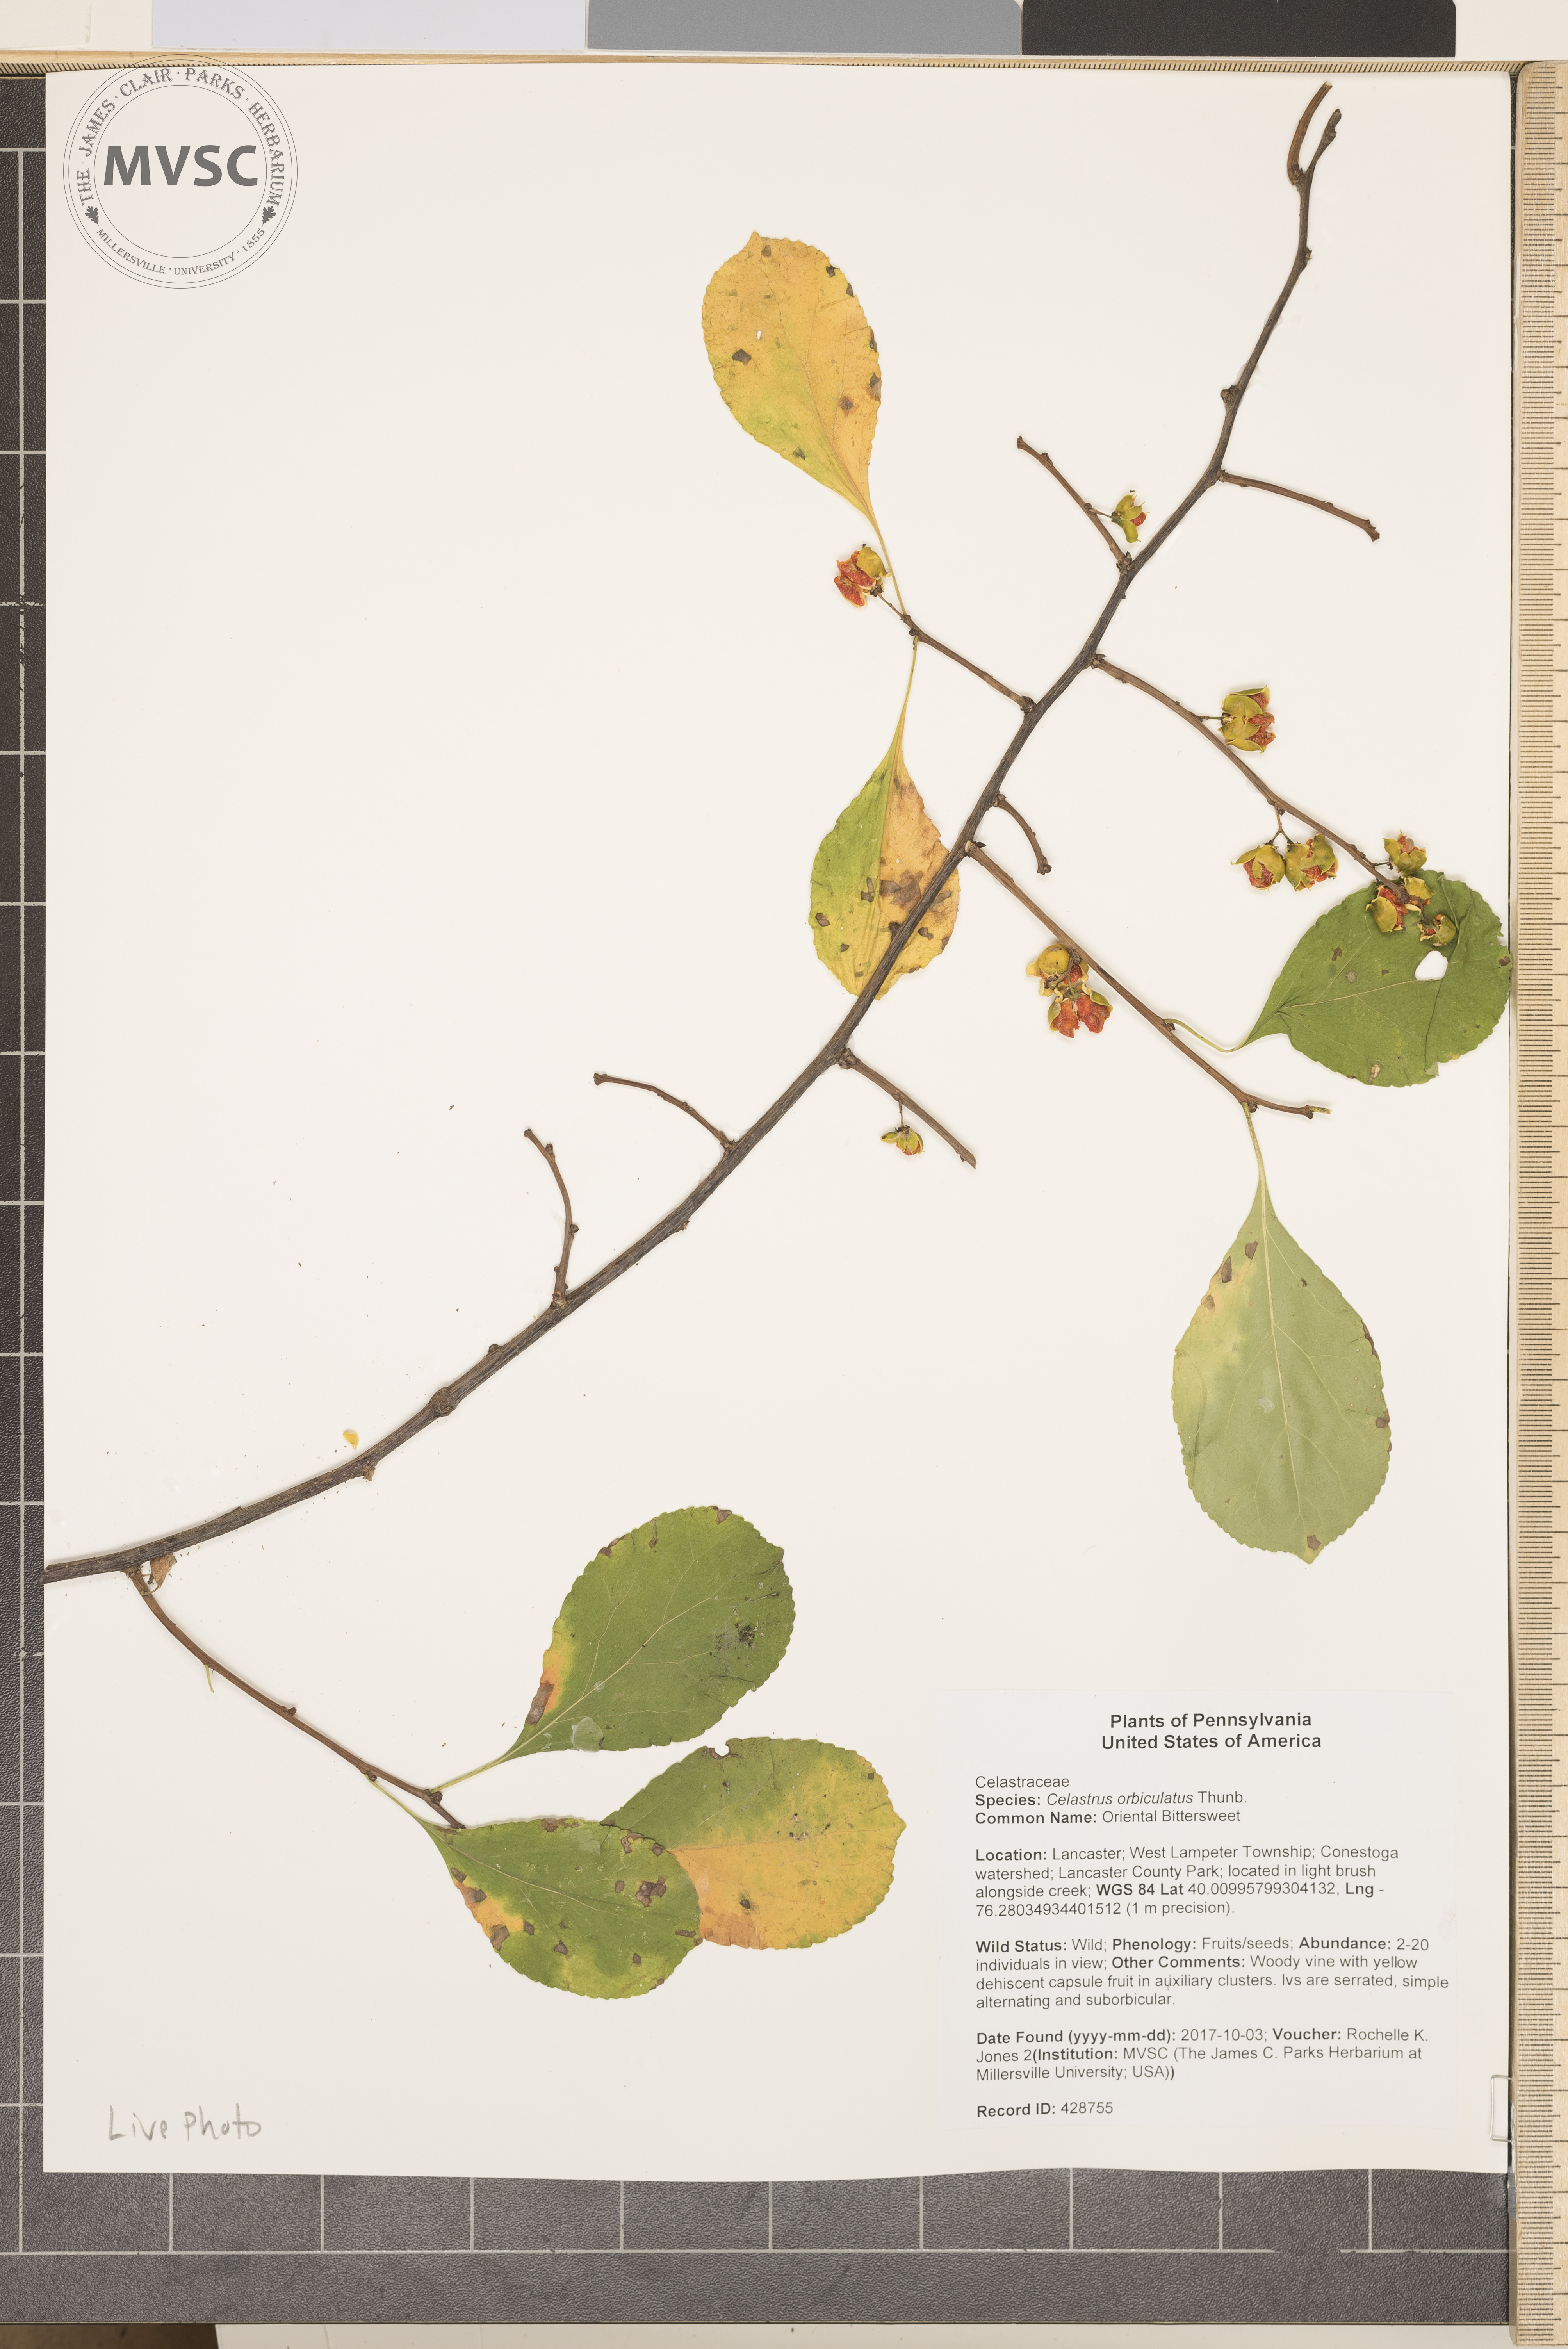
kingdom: Plantae
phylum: Tracheophyta
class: Magnoliopsida
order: Celastrales
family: Celastraceae
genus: Celastrus
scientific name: Celastrus orbiculatus
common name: Oriental Bittersweet
